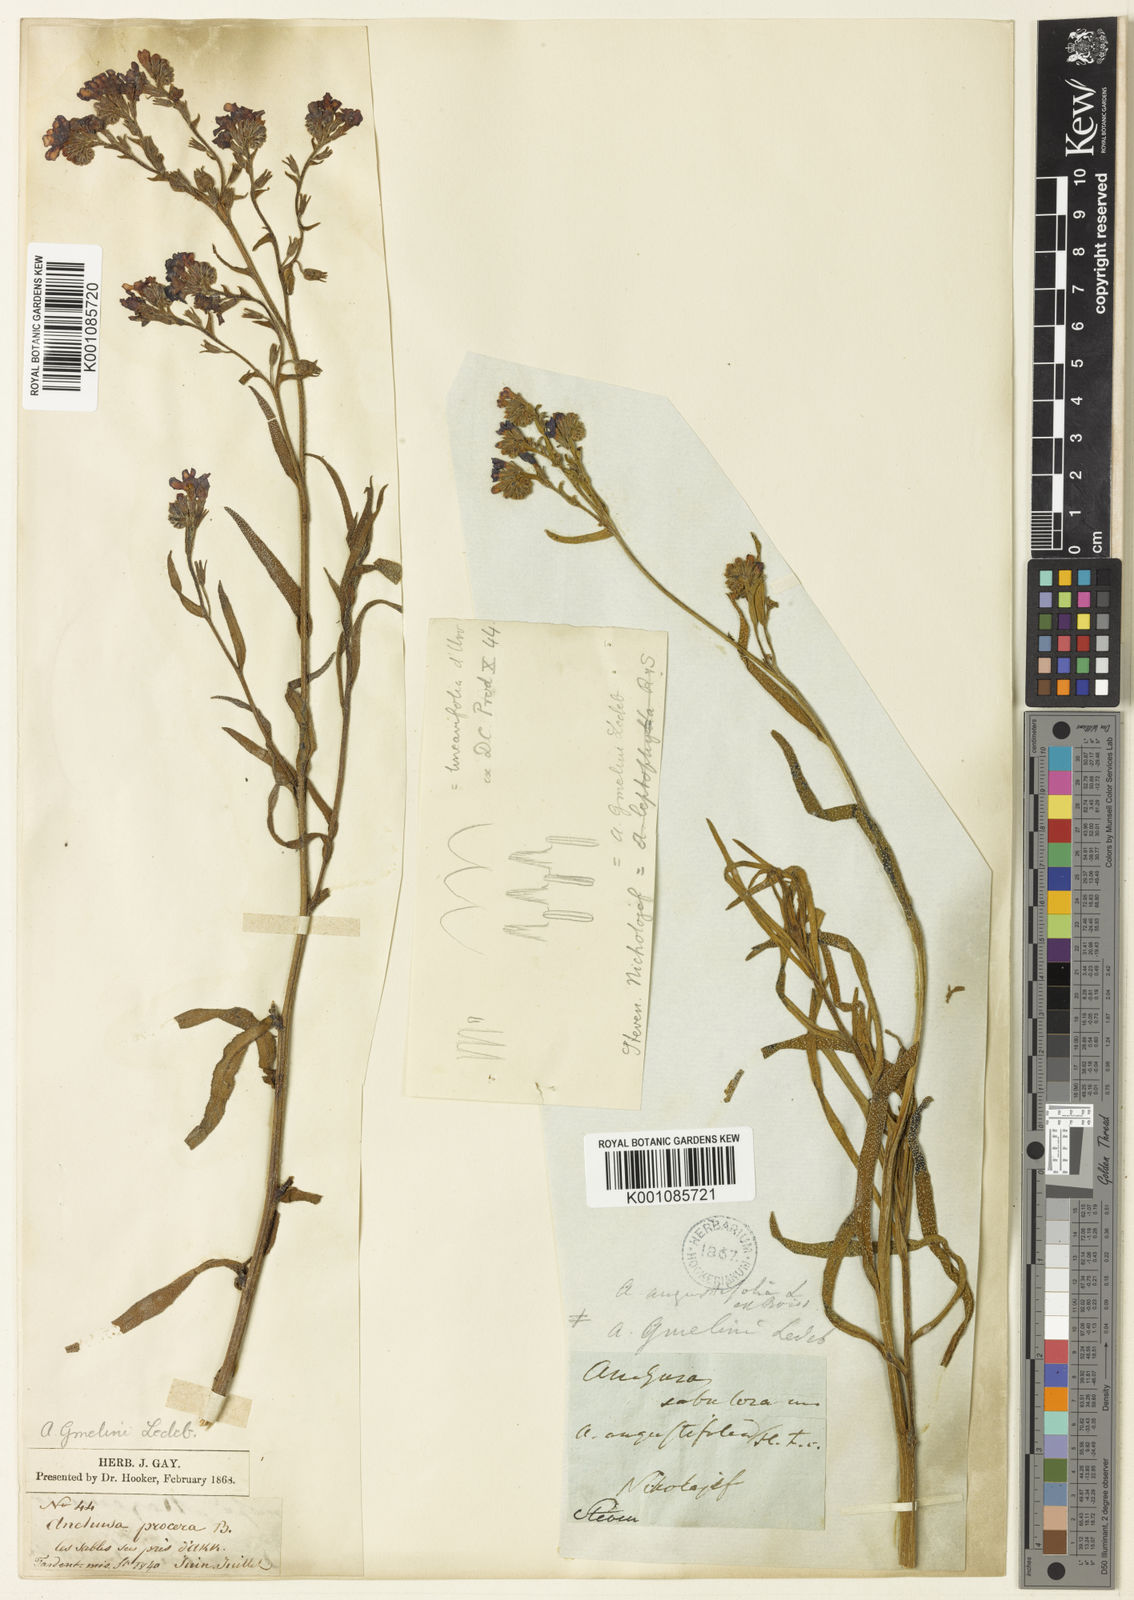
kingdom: Plantae
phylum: Tracheophyta
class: Magnoliopsida
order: Boraginales
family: Boraginaceae
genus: Anchusa
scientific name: Anchusa
